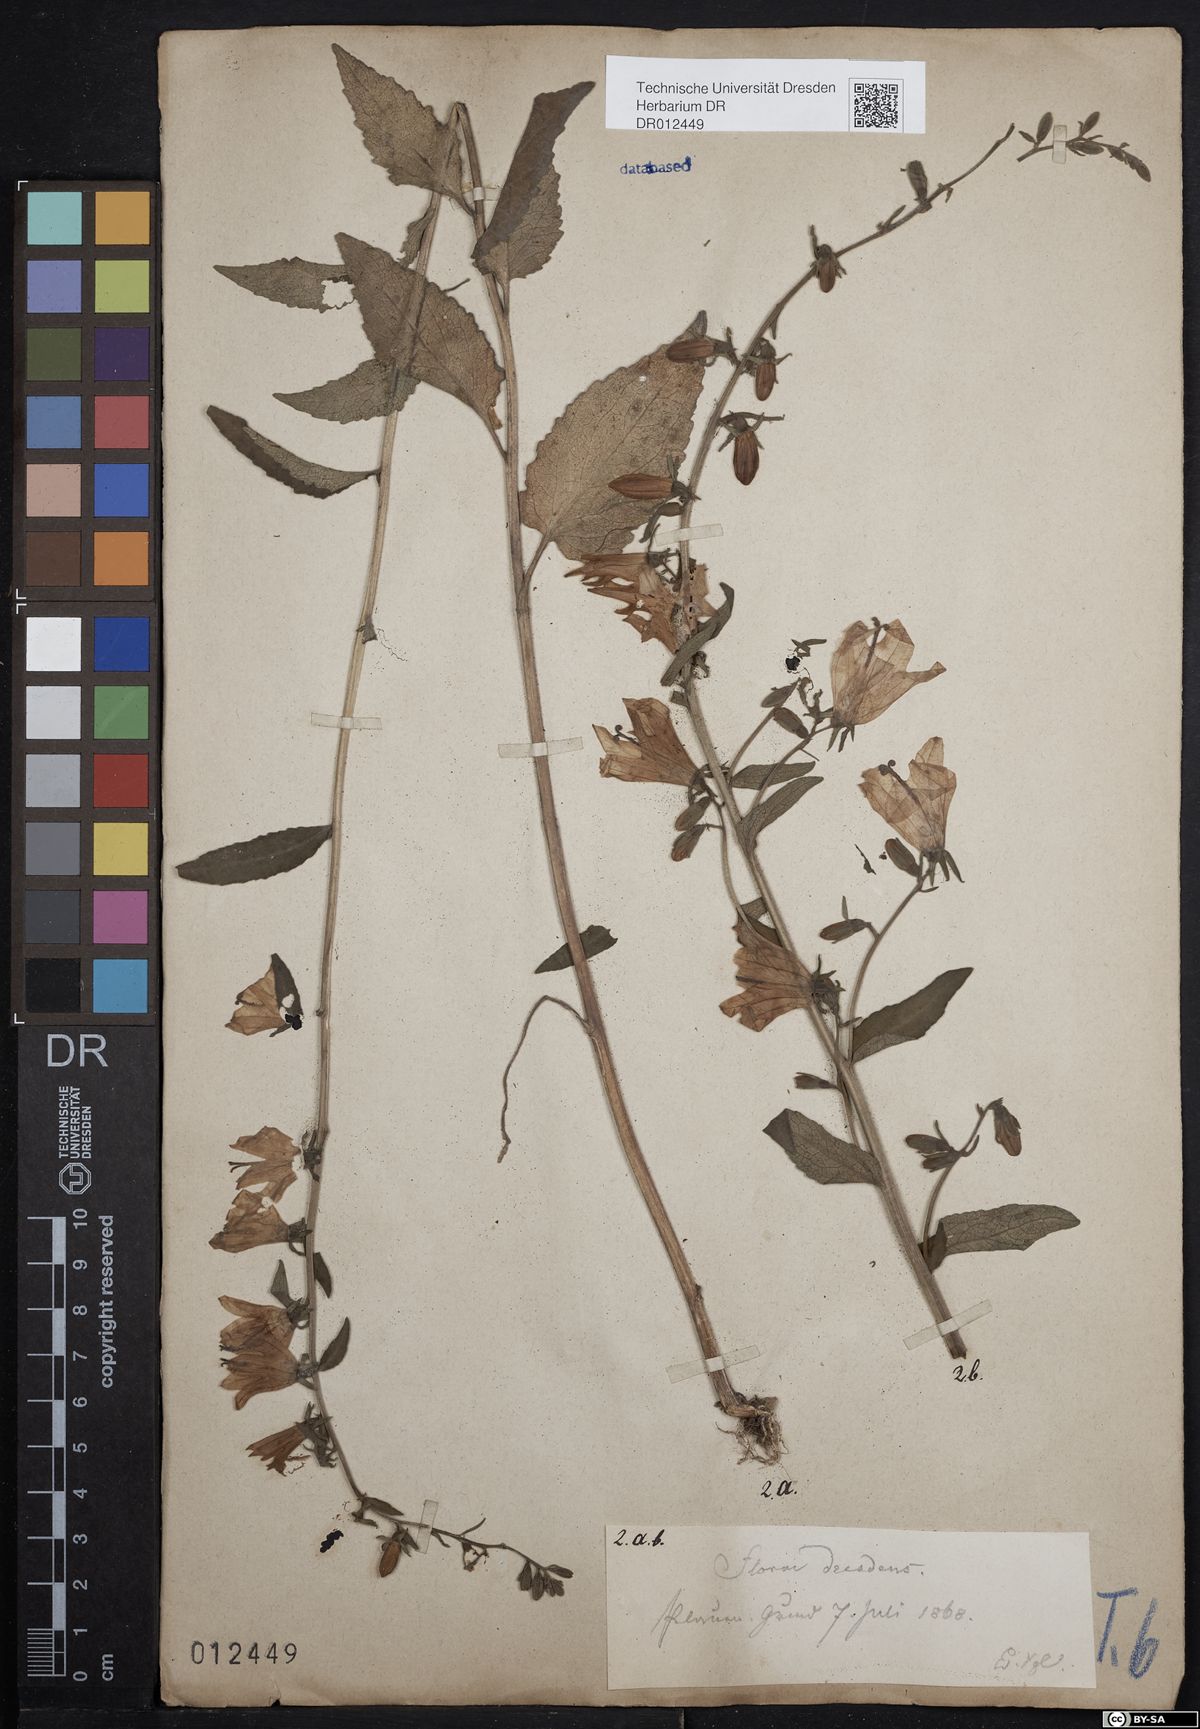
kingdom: Plantae
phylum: Tracheophyta
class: Magnoliopsida
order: Asterales
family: Campanulaceae
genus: Campanula
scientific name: Campanula rapunculoides
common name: Creeping bellflower
